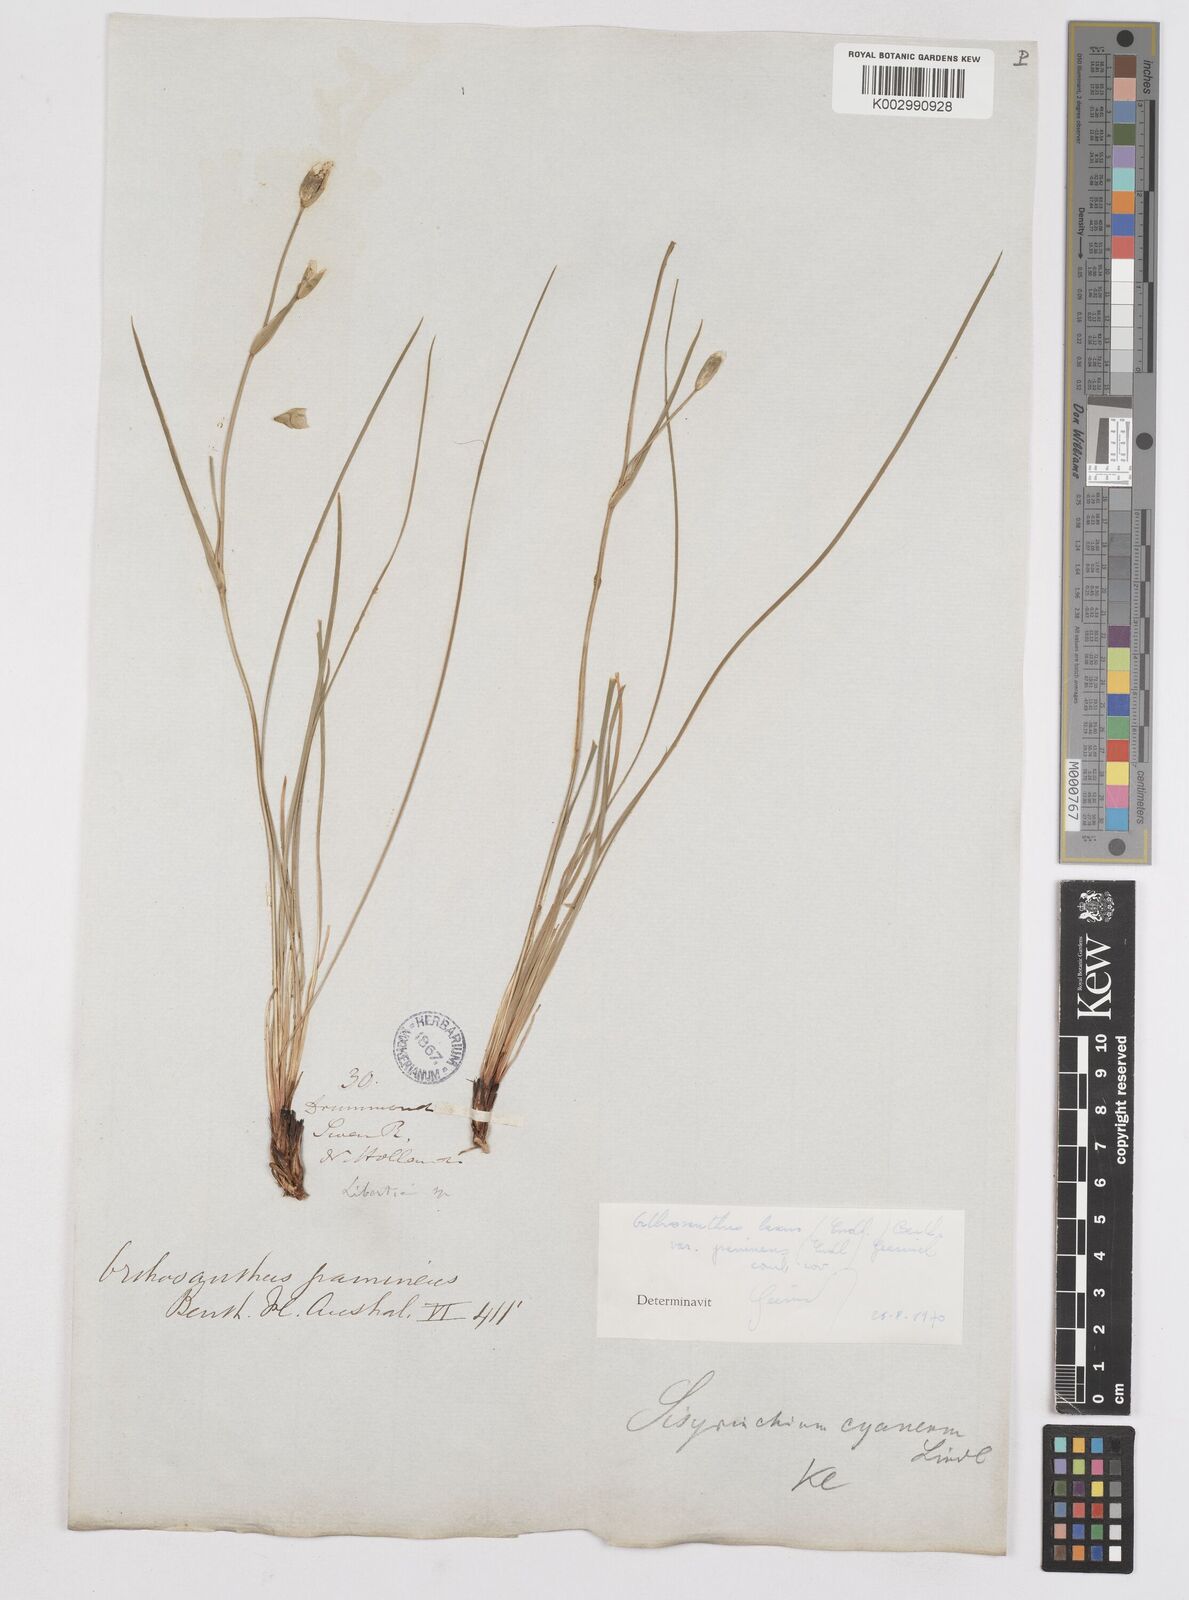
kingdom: Plantae
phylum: Tracheophyta
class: Liliopsida
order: Asparagales
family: Iridaceae
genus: Orthrosanthus
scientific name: Orthrosanthus laxus
